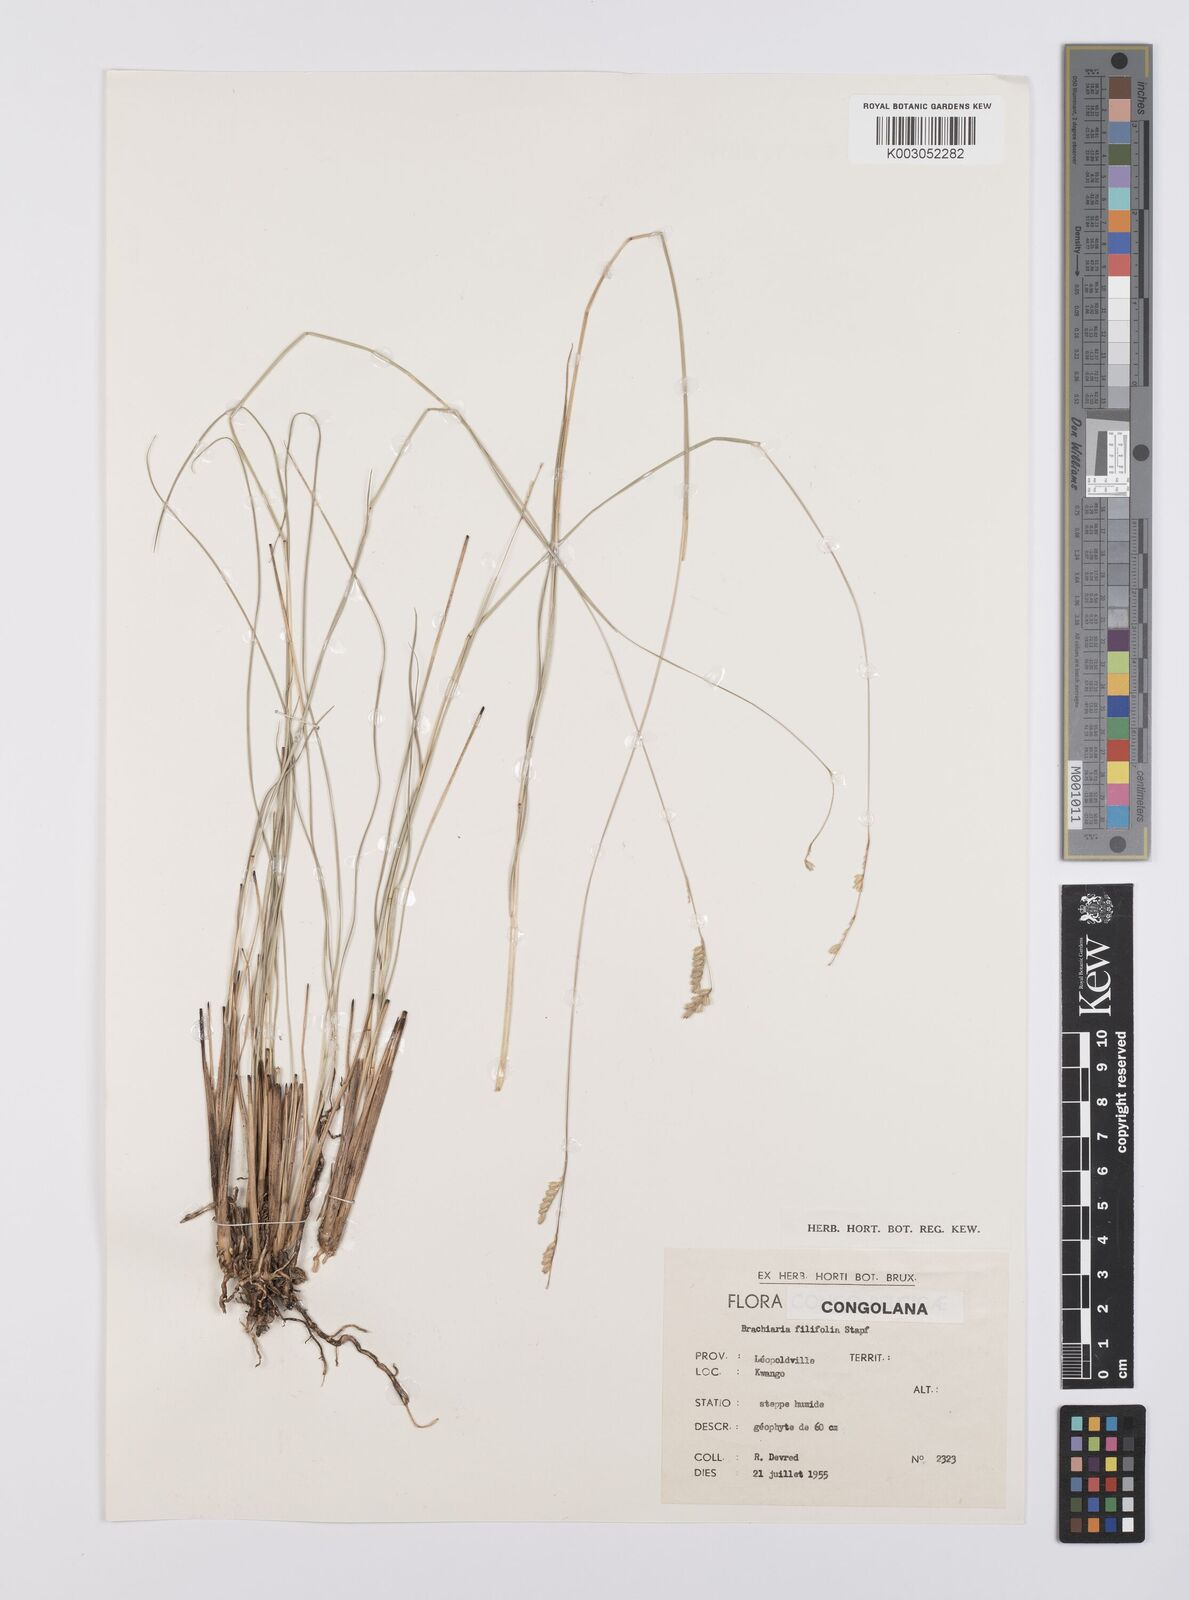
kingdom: Plantae
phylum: Tracheophyta
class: Liliopsida
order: Poales
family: Poaceae
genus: Urochloa
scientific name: Urochloa subulifolia
